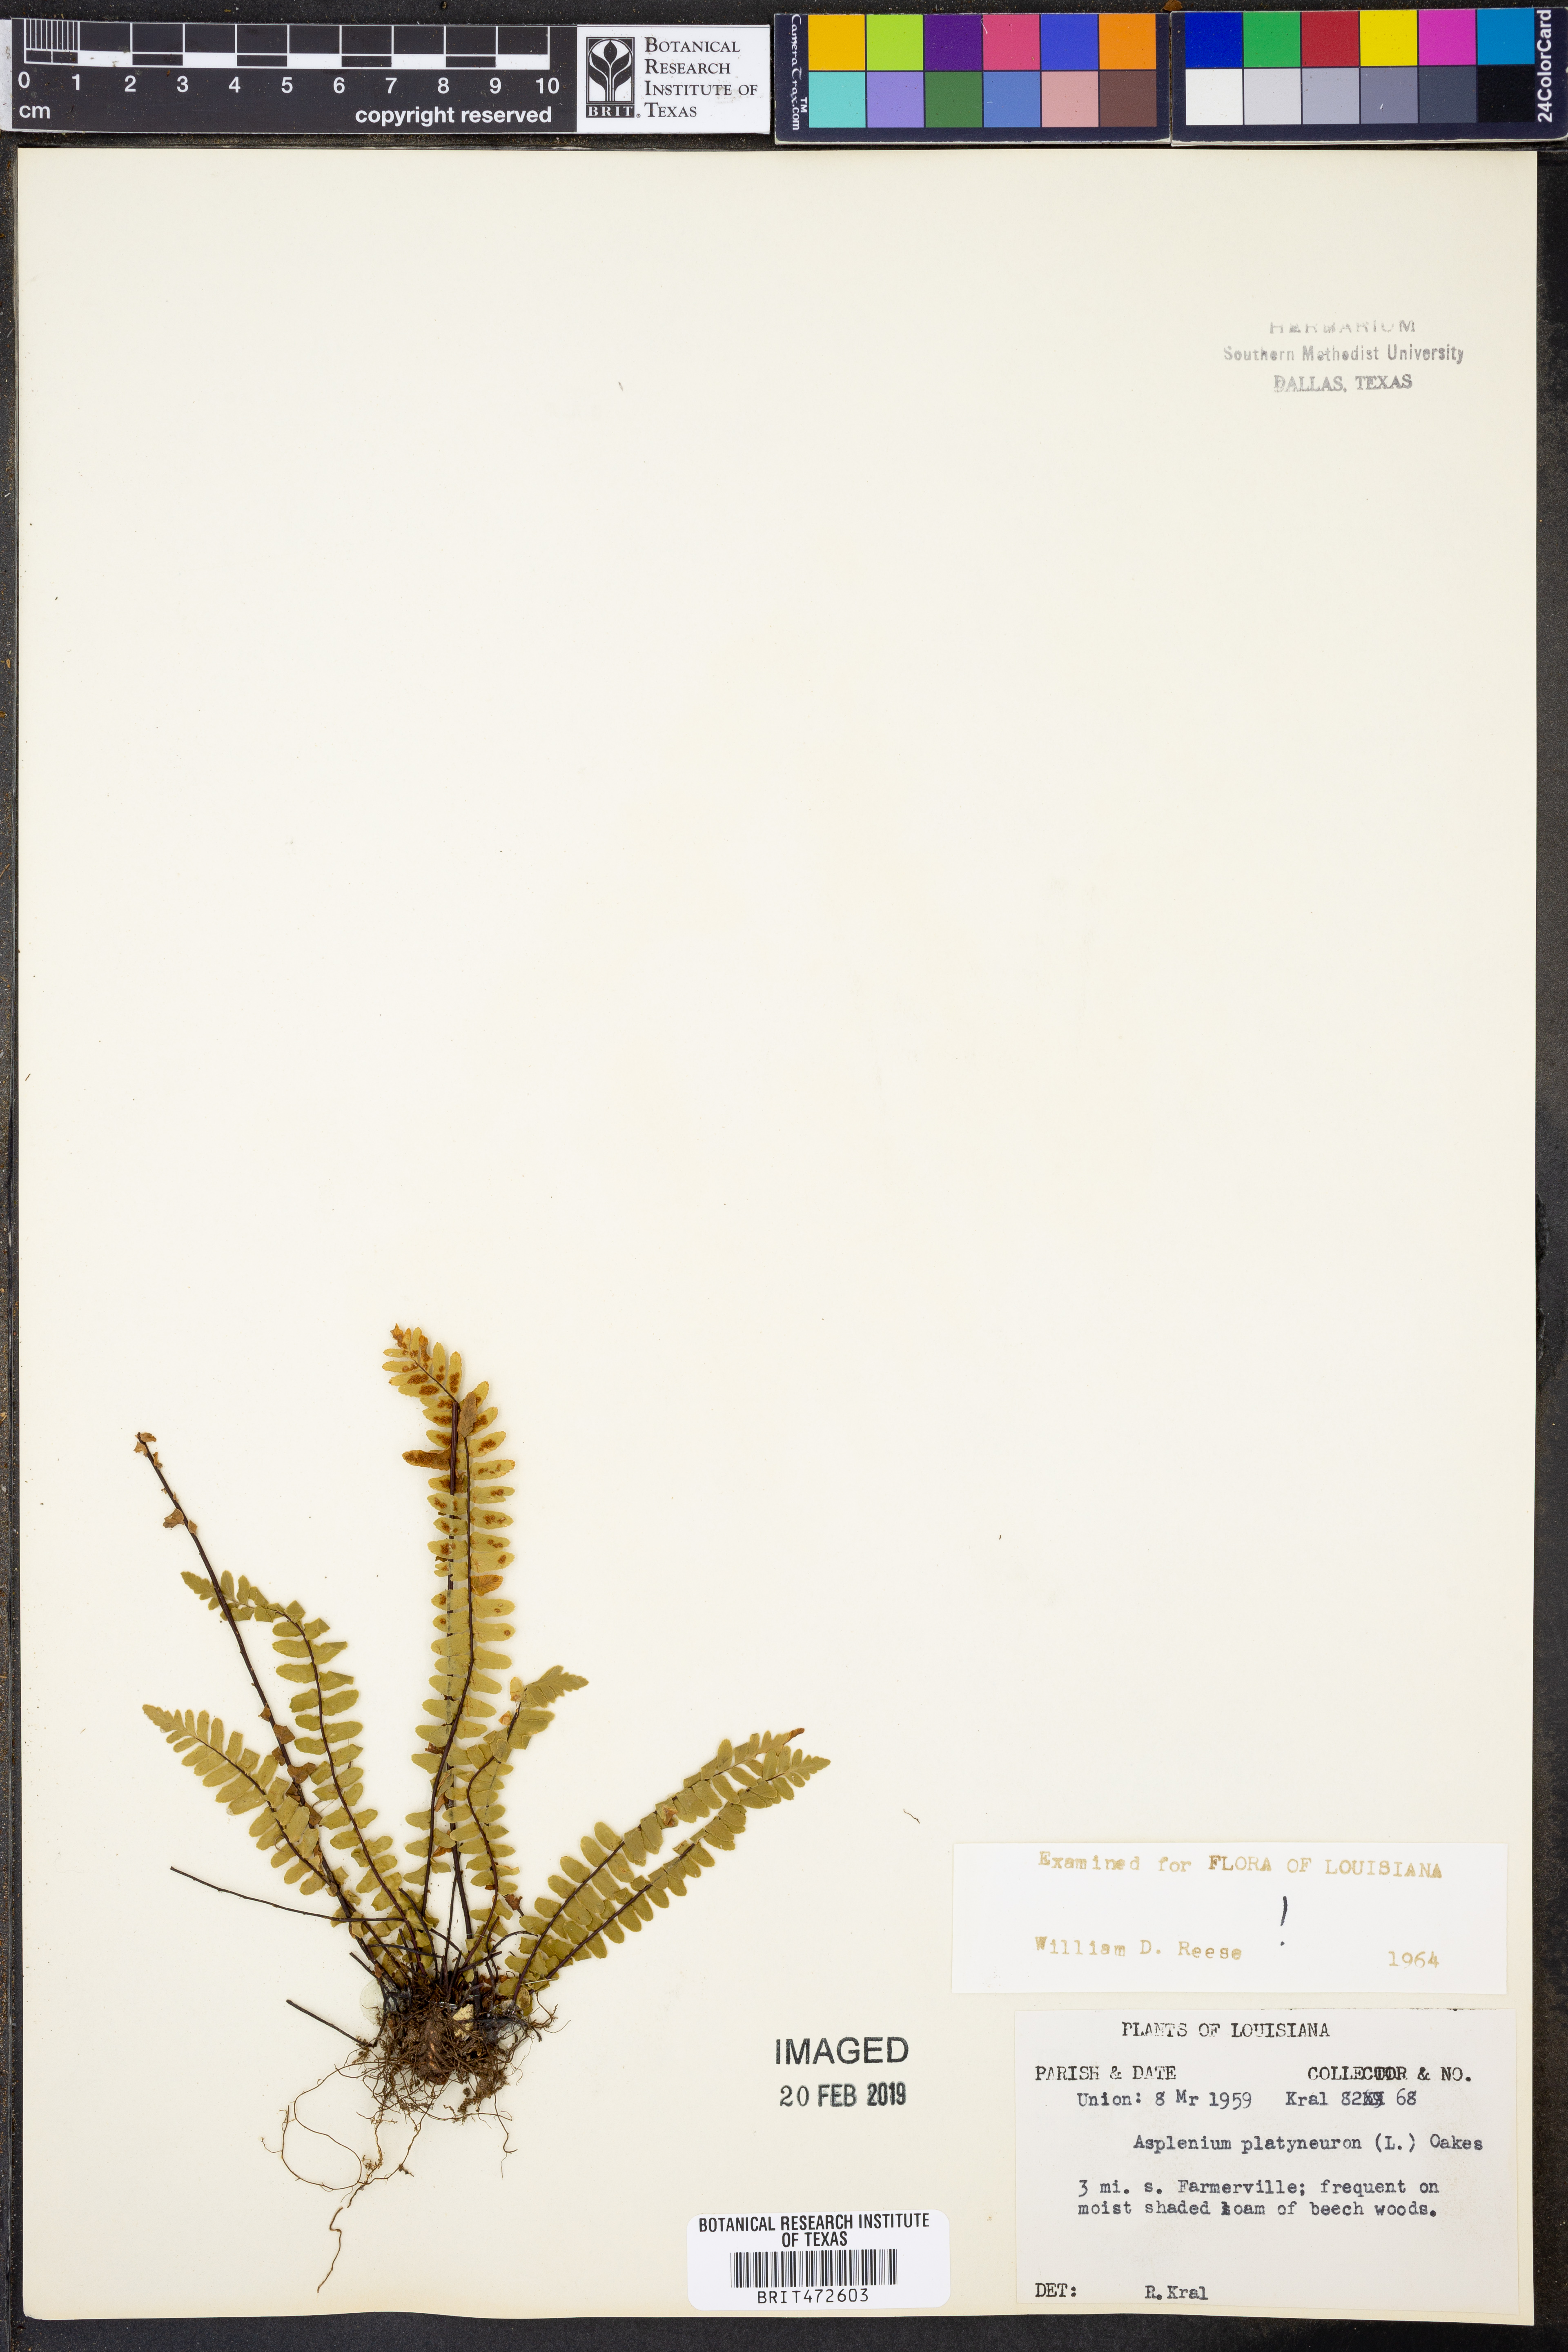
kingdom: Plantae
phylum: Tracheophyta
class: Polypodiopsida
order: Polypodiales
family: Aspleniaceae
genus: Asplenium
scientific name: Asplenium platyneuron
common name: Ebony spleenwort
